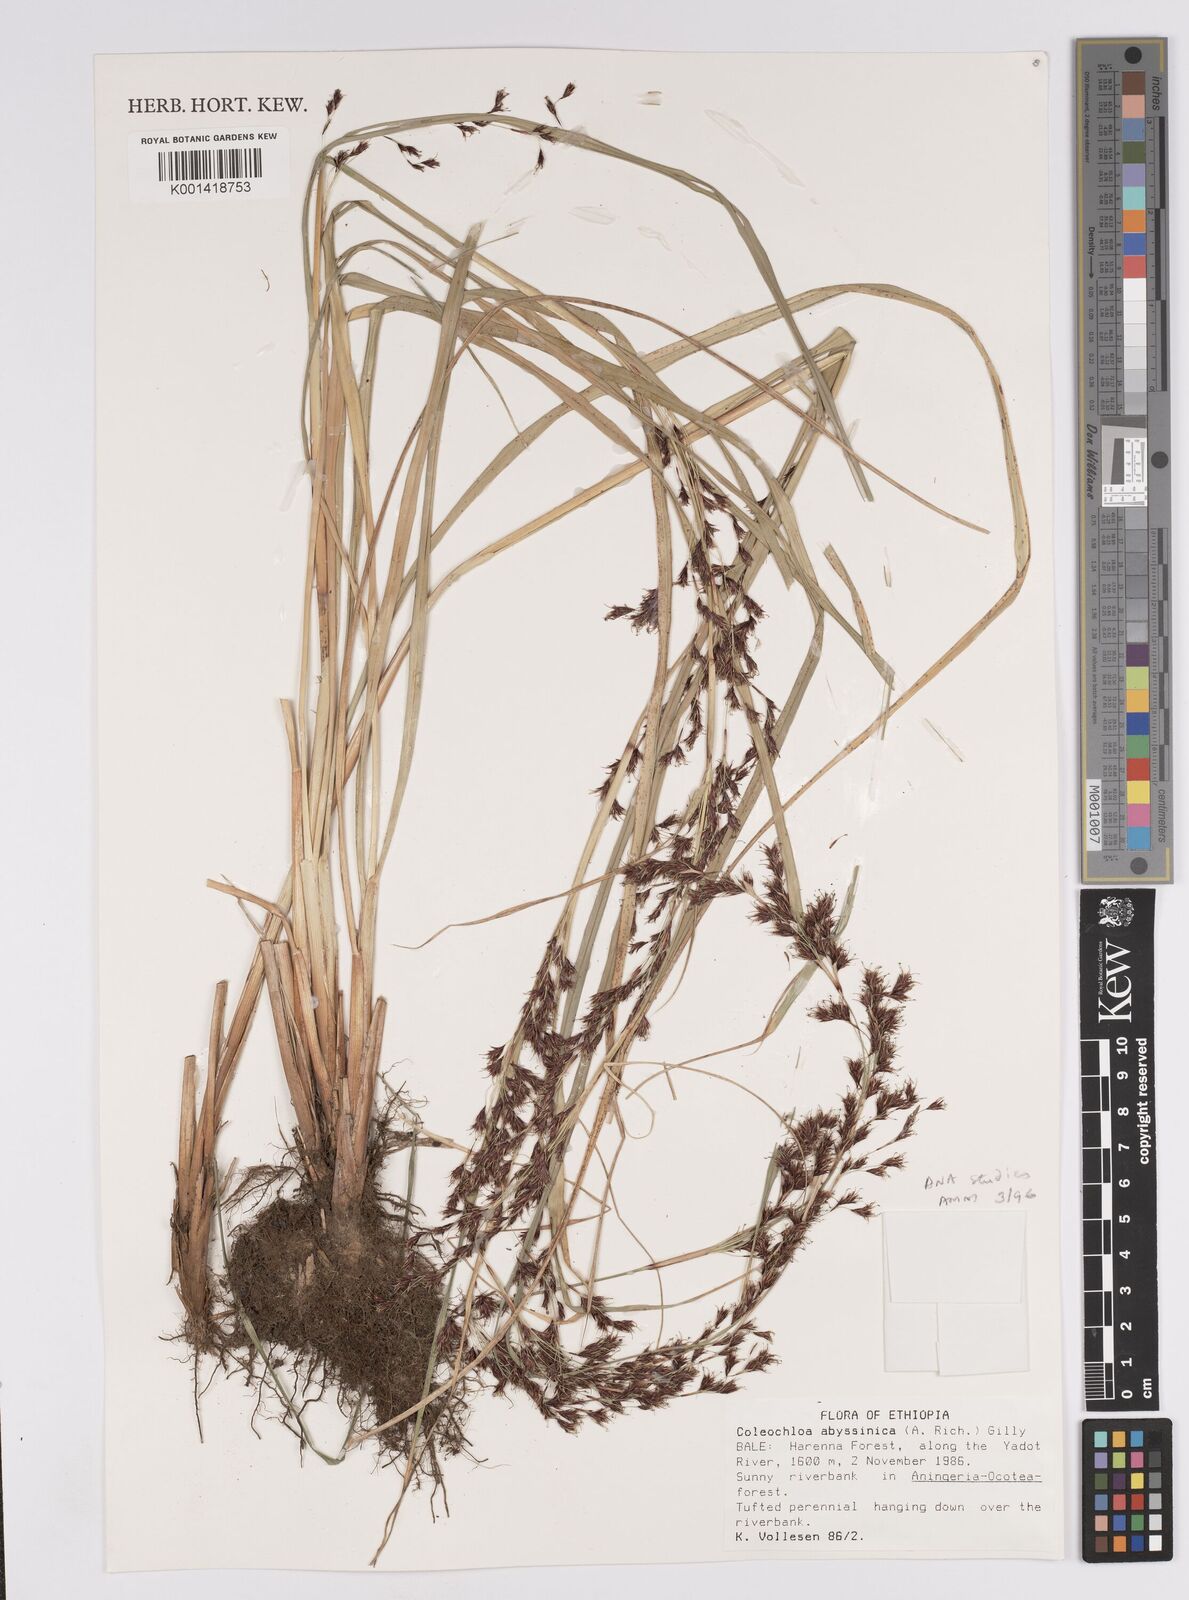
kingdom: Plantae
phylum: Tracheophyta
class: Liliopsida
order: Poales
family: Cyperaceae
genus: Coleochloa
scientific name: Coleochloa abyssinica
